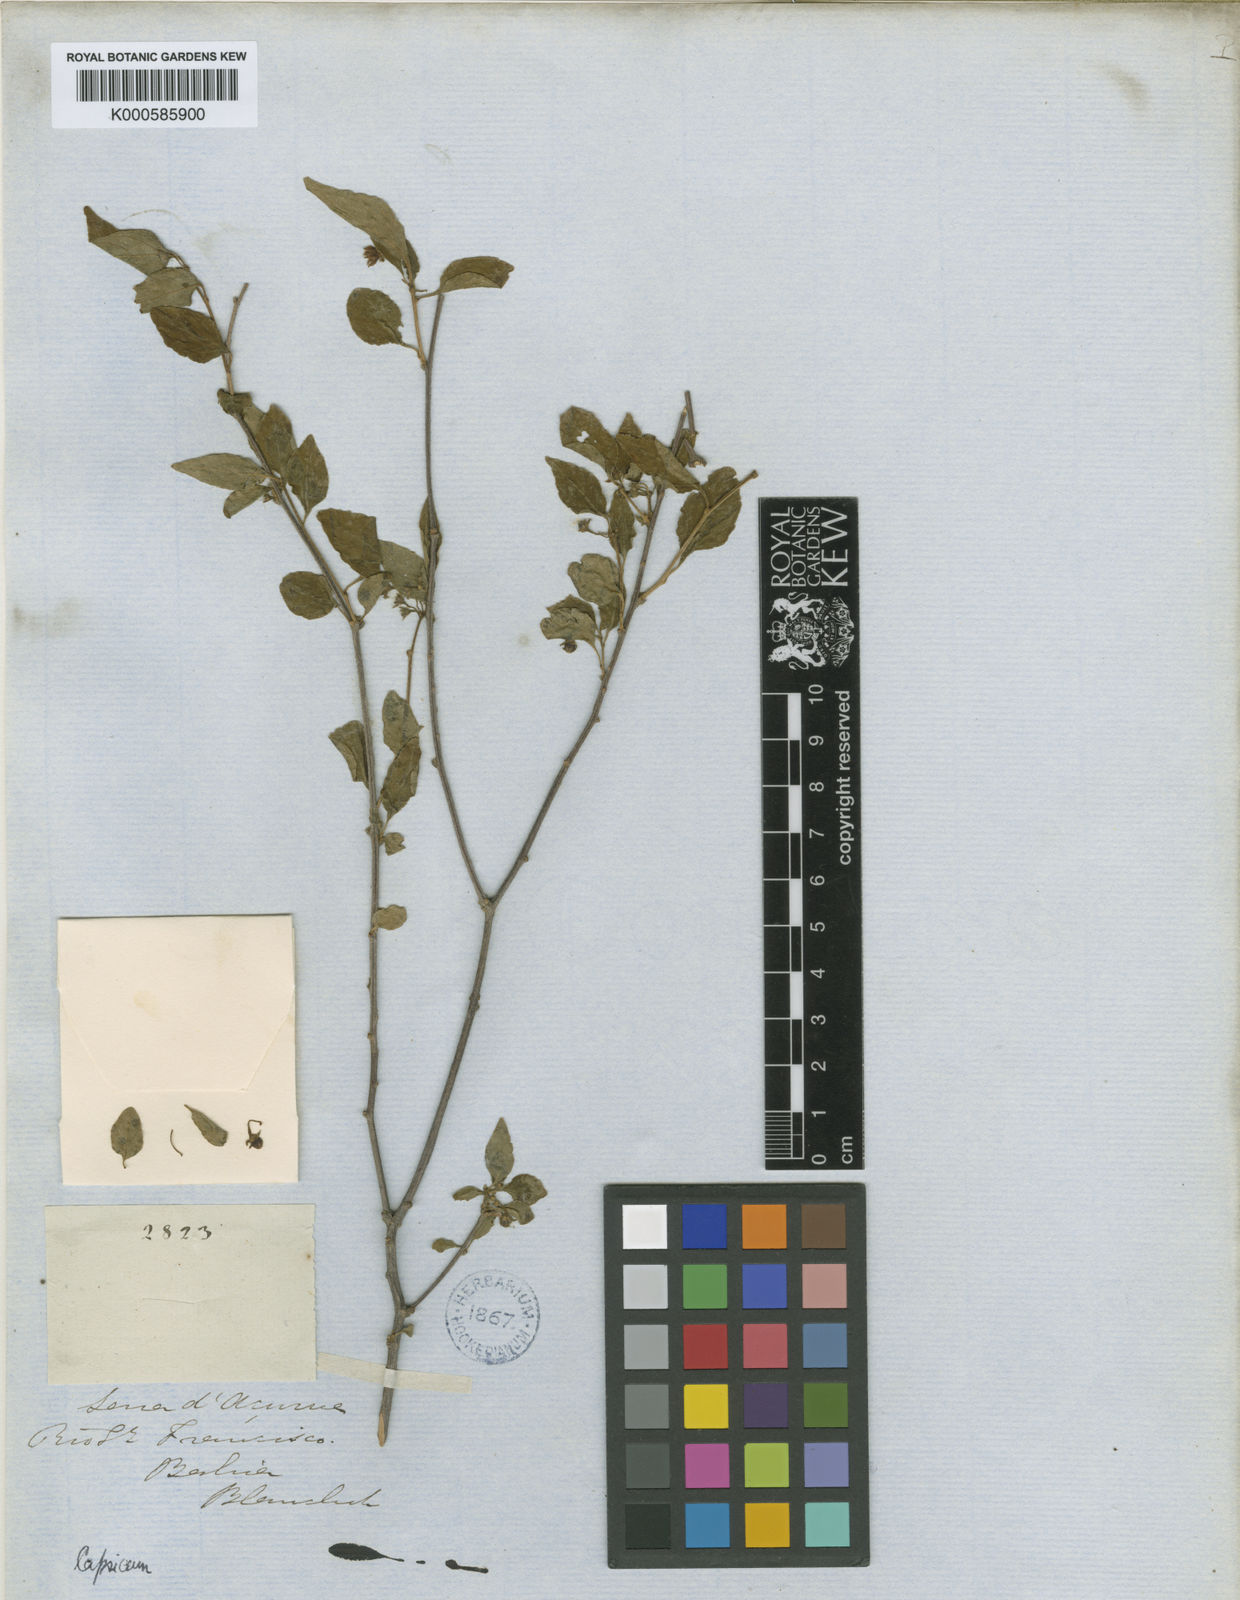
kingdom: Plantae
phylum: Tracheophyta
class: Magnoliopsida
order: Solanales
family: Solanaceae
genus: Capsicum
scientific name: Capsicum parvifolium
